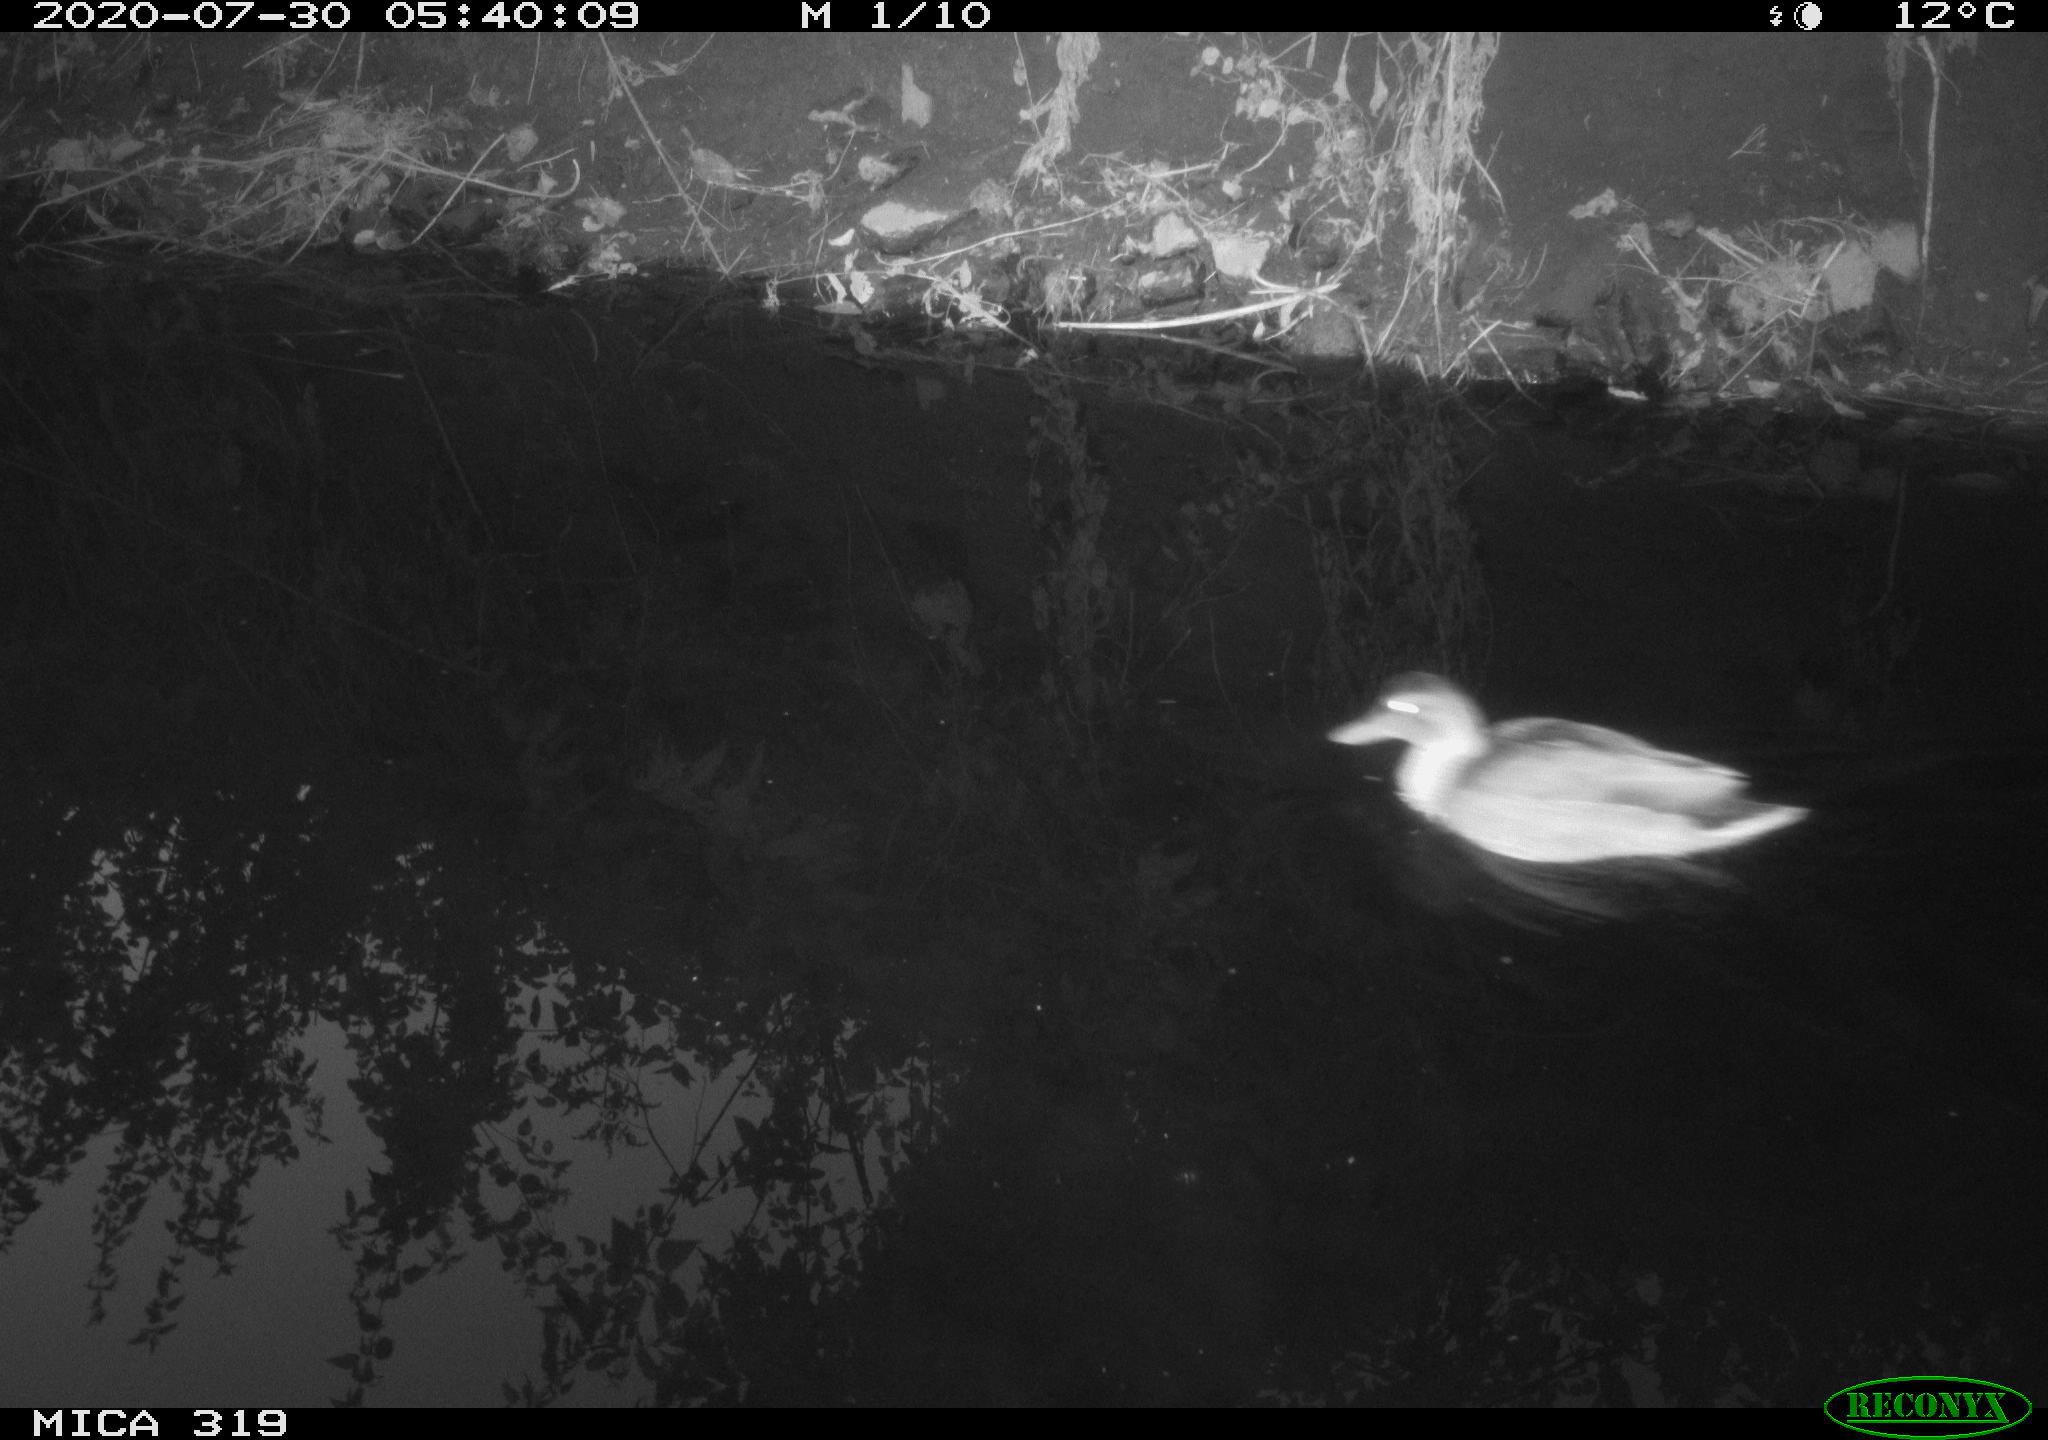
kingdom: Animalia
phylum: Chordata
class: Aves
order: Anseriformes
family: Anatidae
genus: Anas
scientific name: Anas platyrhynchos
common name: Mallard
